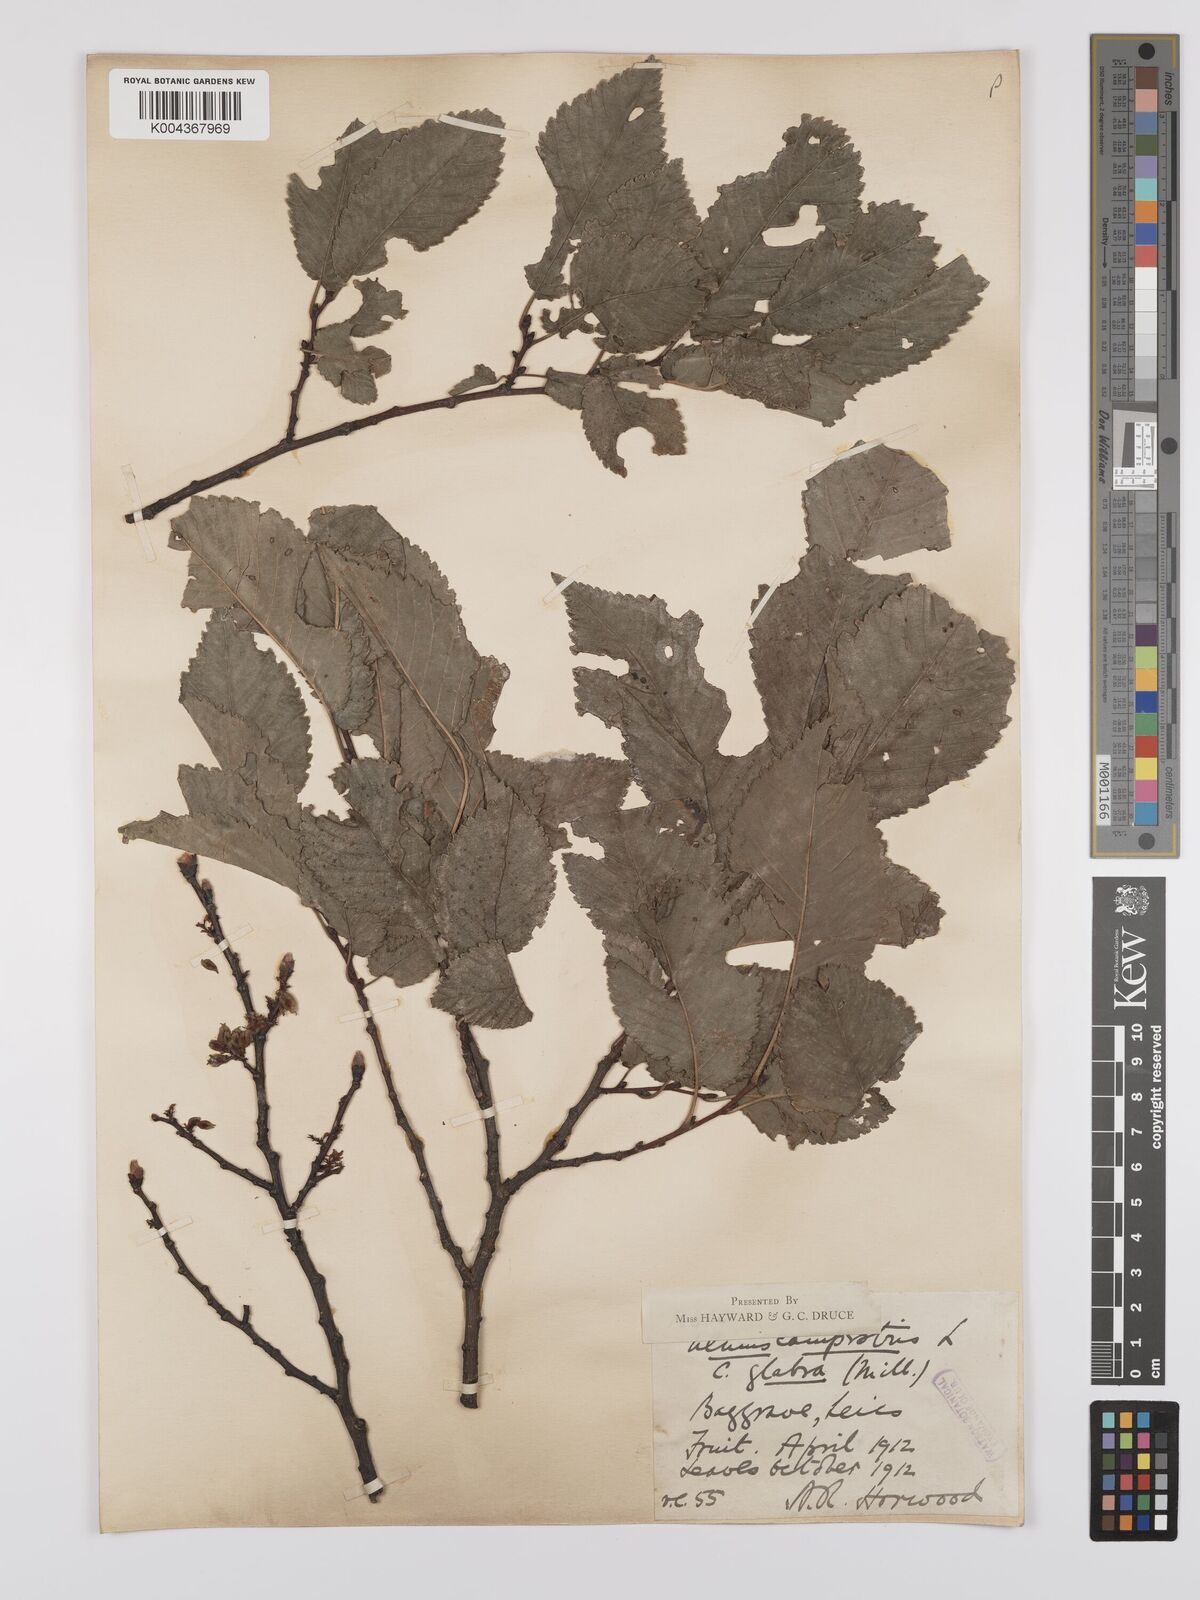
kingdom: Plantae
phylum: Tracheophyta
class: Magnoliopsida
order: Rosales
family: Ulmaceae
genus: Ulmus
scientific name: Ulmus glabra
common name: Wych elm
